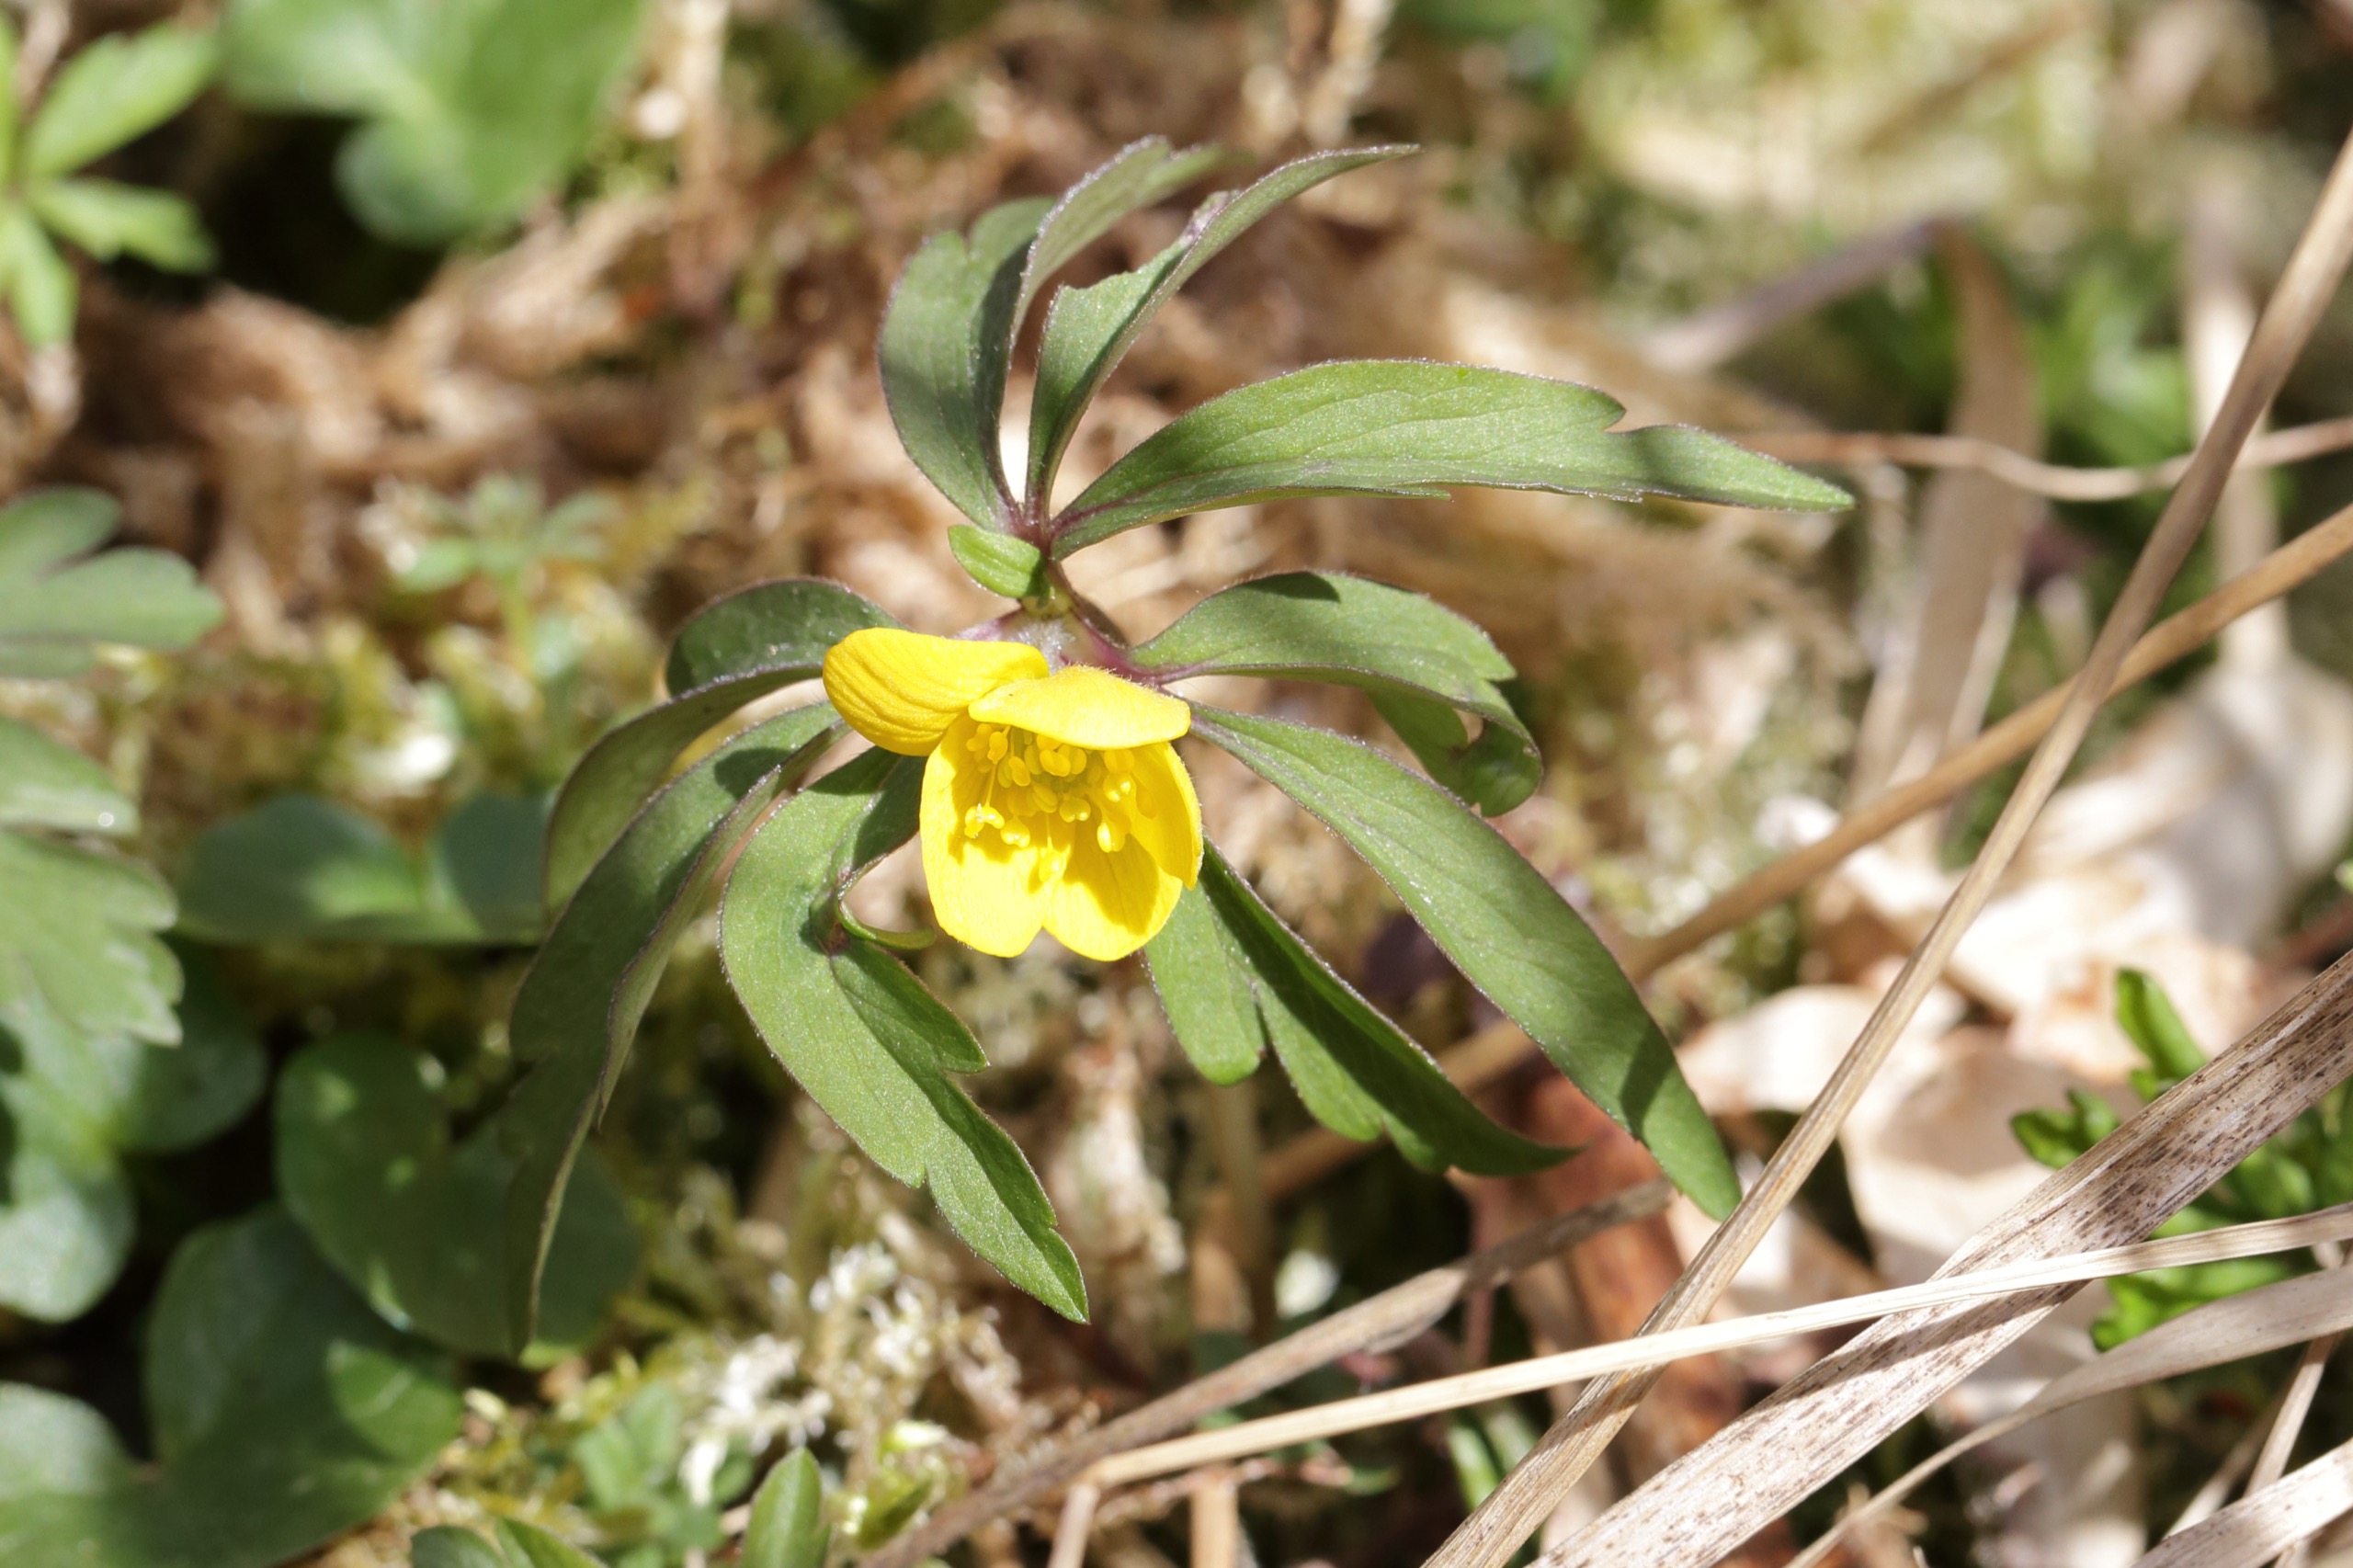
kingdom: Plantae
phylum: Tracheophyta
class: Magnoliopsida
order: Ranunculales
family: Ranunculaceae
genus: Anemone
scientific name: Anemone ranunculoides
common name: Gul anemone
